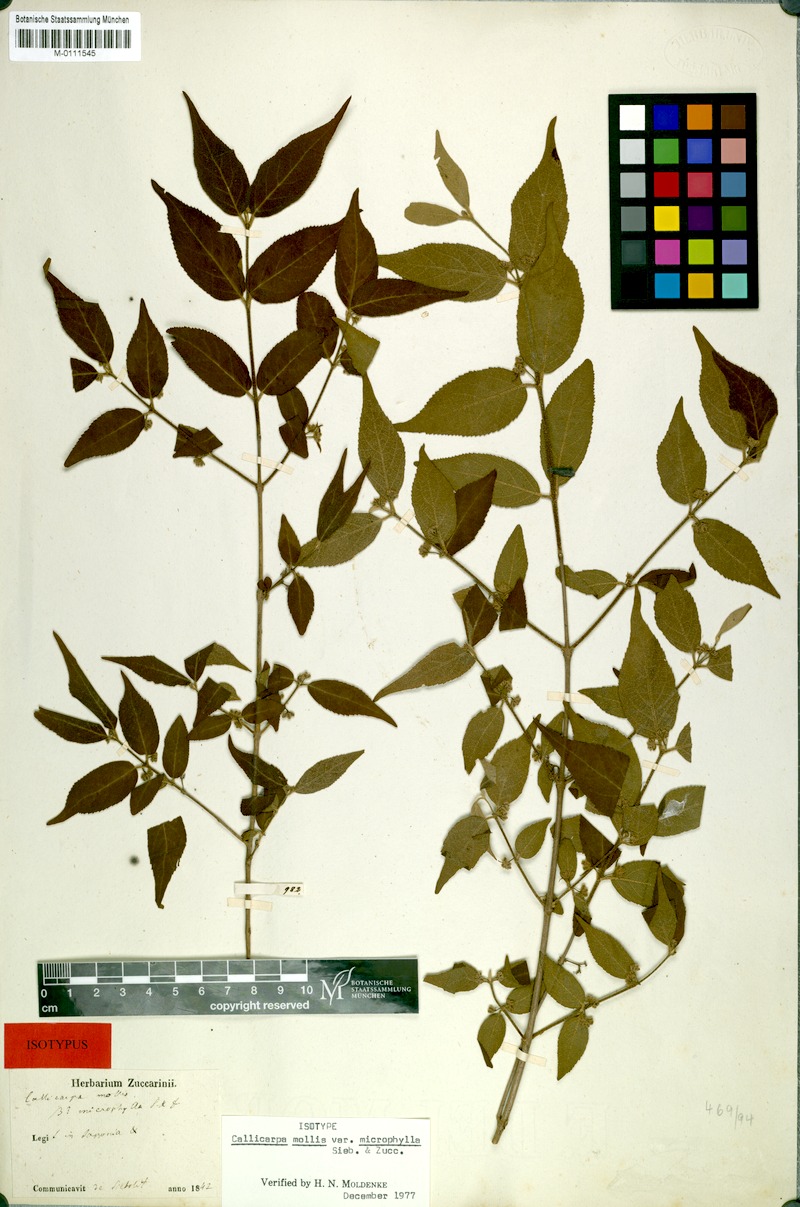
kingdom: Plantae
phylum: Tracheophyta
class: Magnoliopsida
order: Lamiales
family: Lamiaceae
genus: Callicarpa
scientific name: Callicarpa mollis
